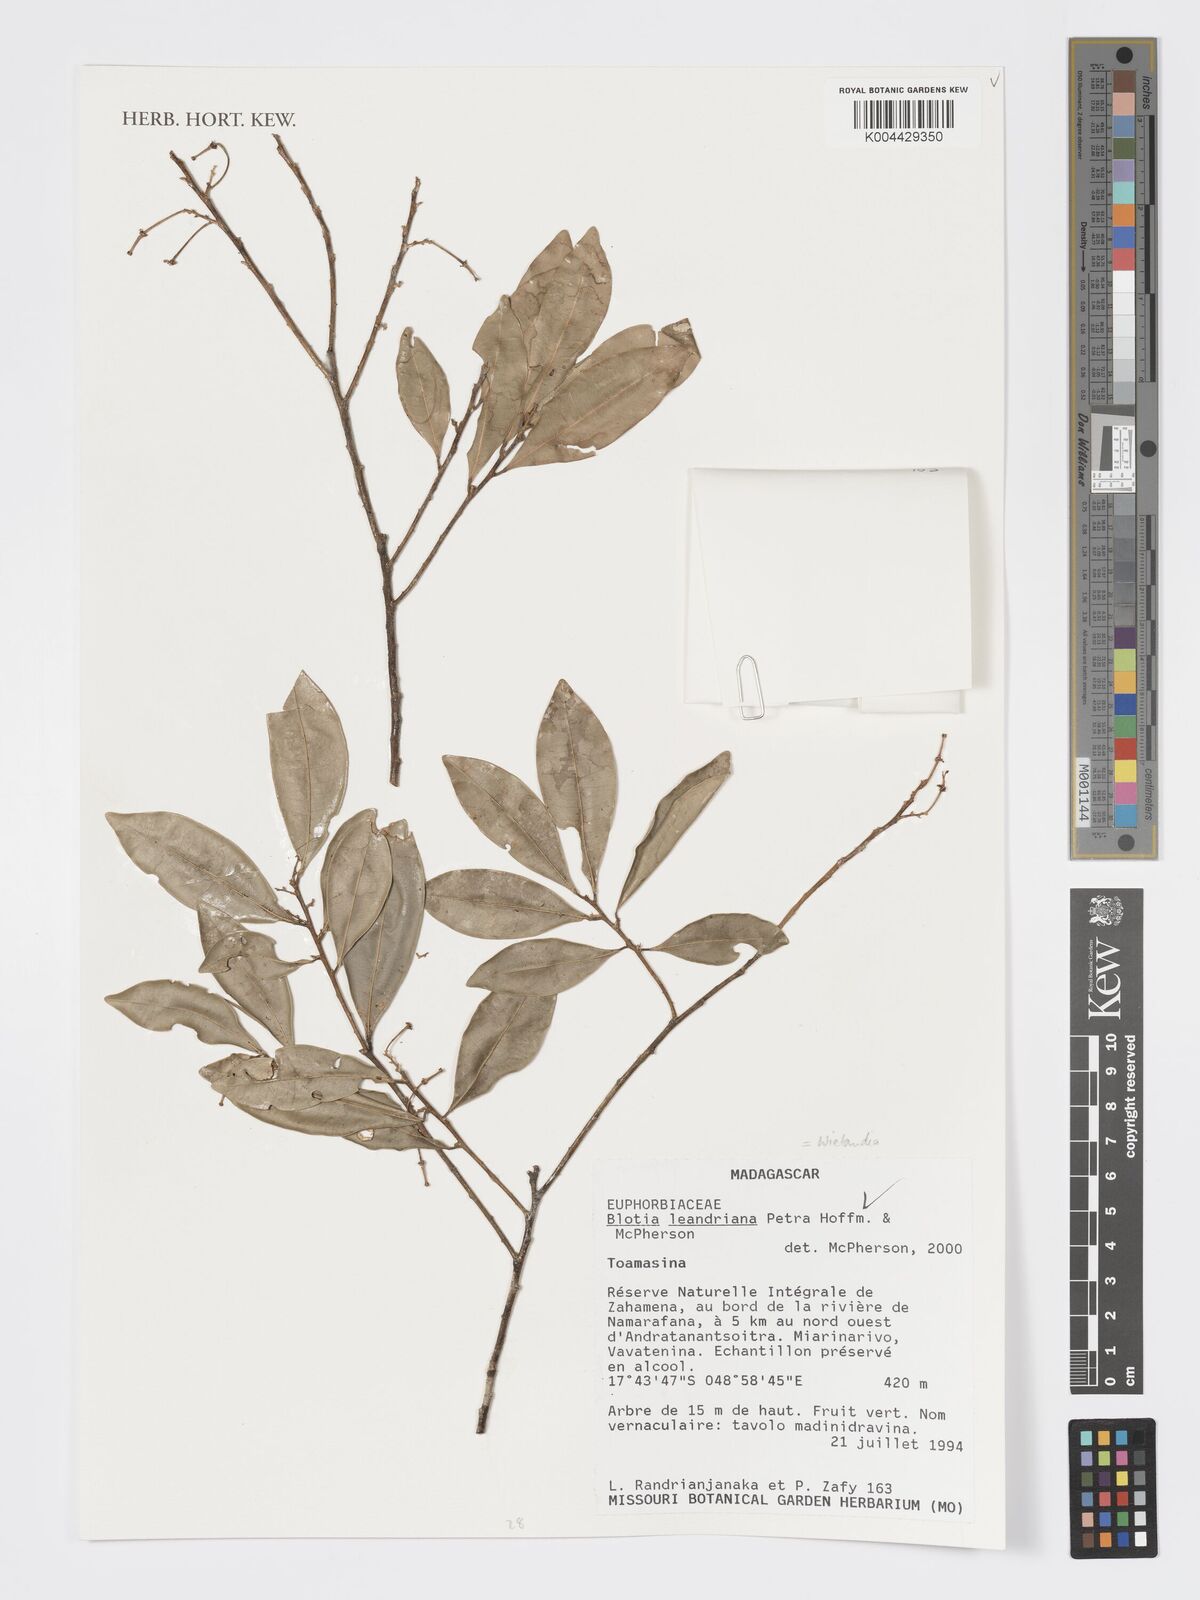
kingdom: Plantae
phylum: Tracheophyta
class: Magnoliopsida
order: Malpighiales
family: Phyllanthaceae
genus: Wielandia
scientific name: Wielandia leandriana
